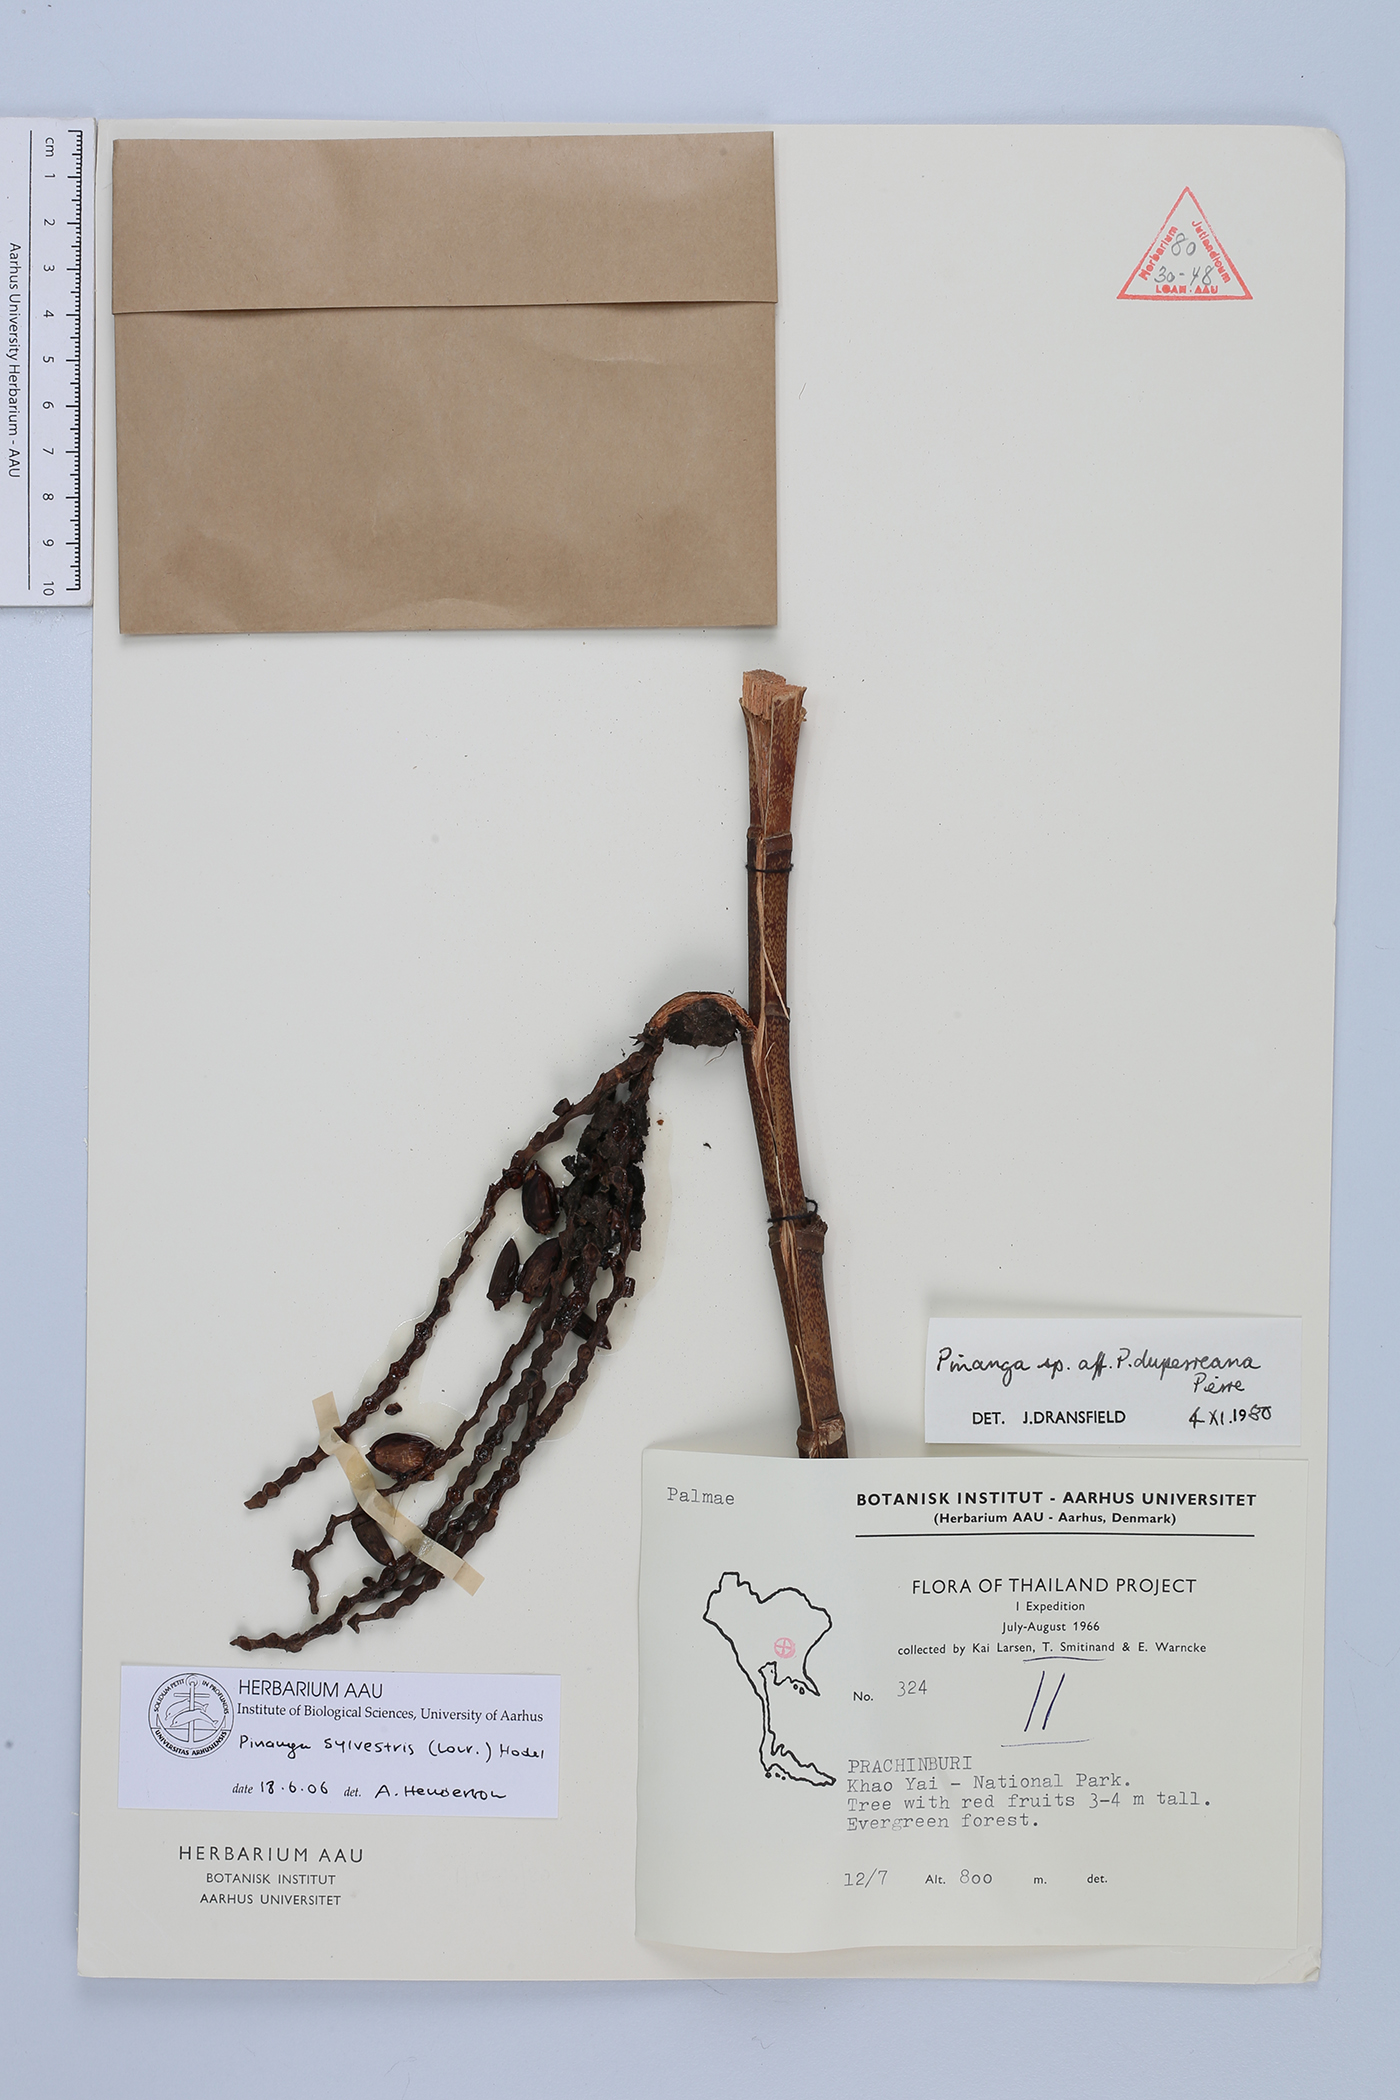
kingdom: Plantae
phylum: Tracheophyta
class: Liliopsida
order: Arecales
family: Arecaceae
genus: Pinanga
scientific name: Pinanga sylvestris
